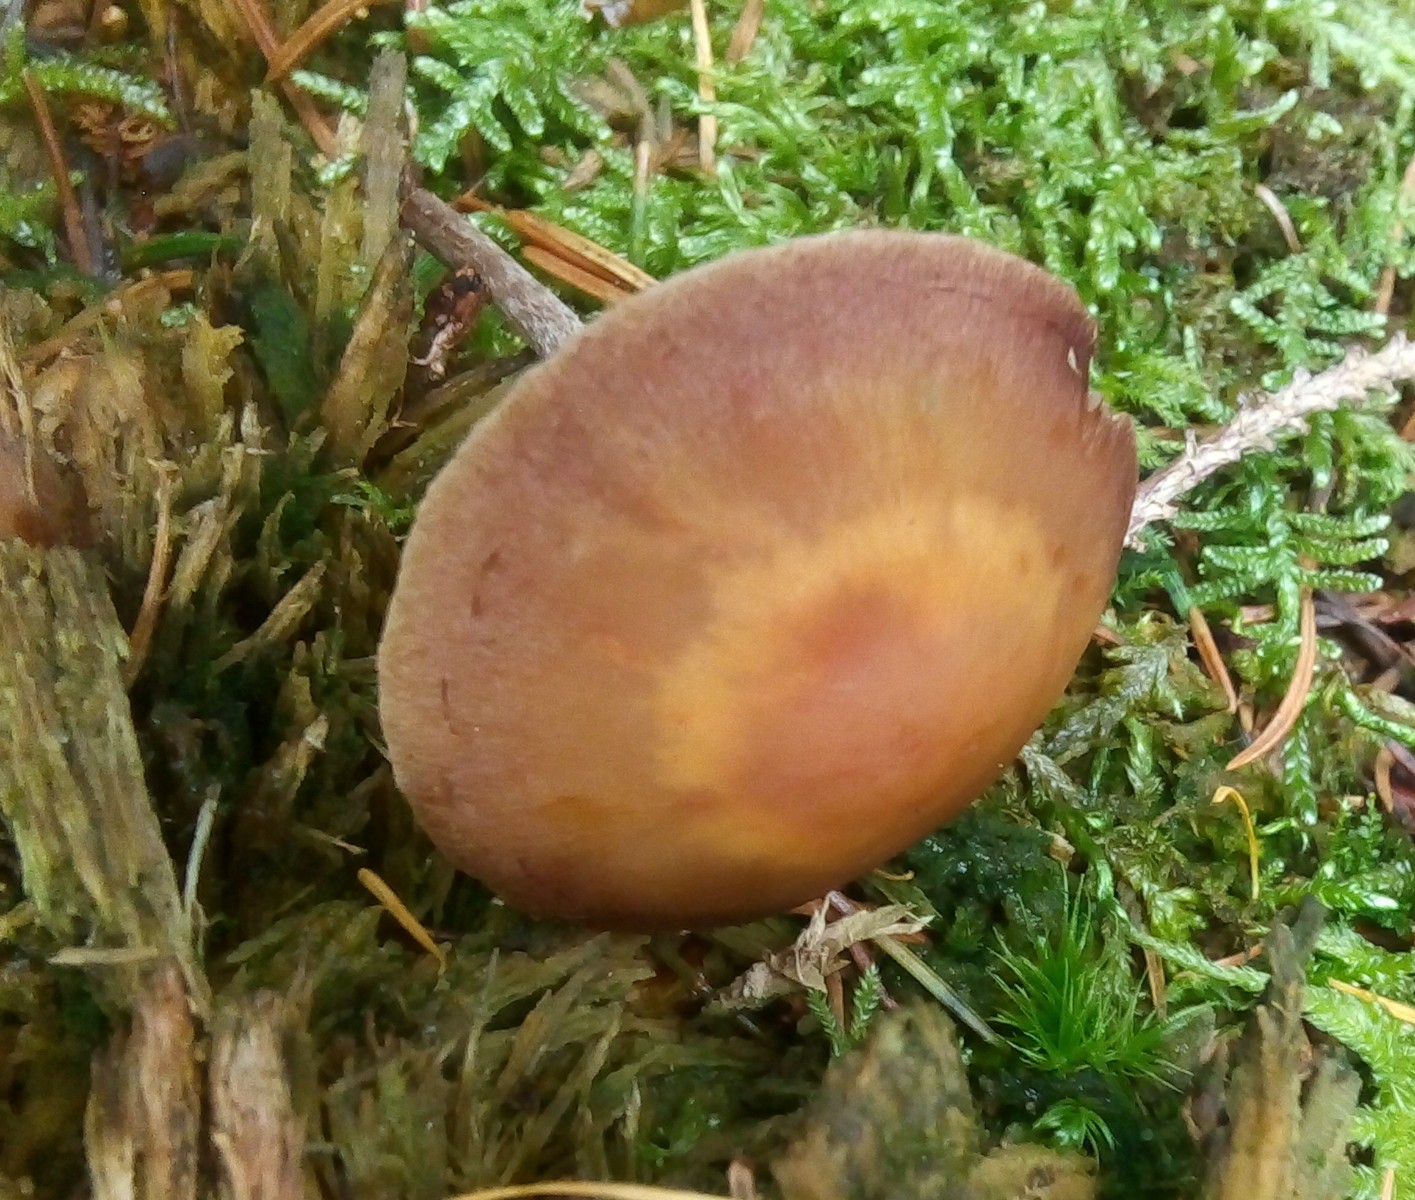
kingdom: Fungi
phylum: Basidiomycota
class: Agaricomycetes
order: Agaricales
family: Strophariaceae
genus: Hypholoma
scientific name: Hypholoma marginatum
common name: enlig svovlhat
